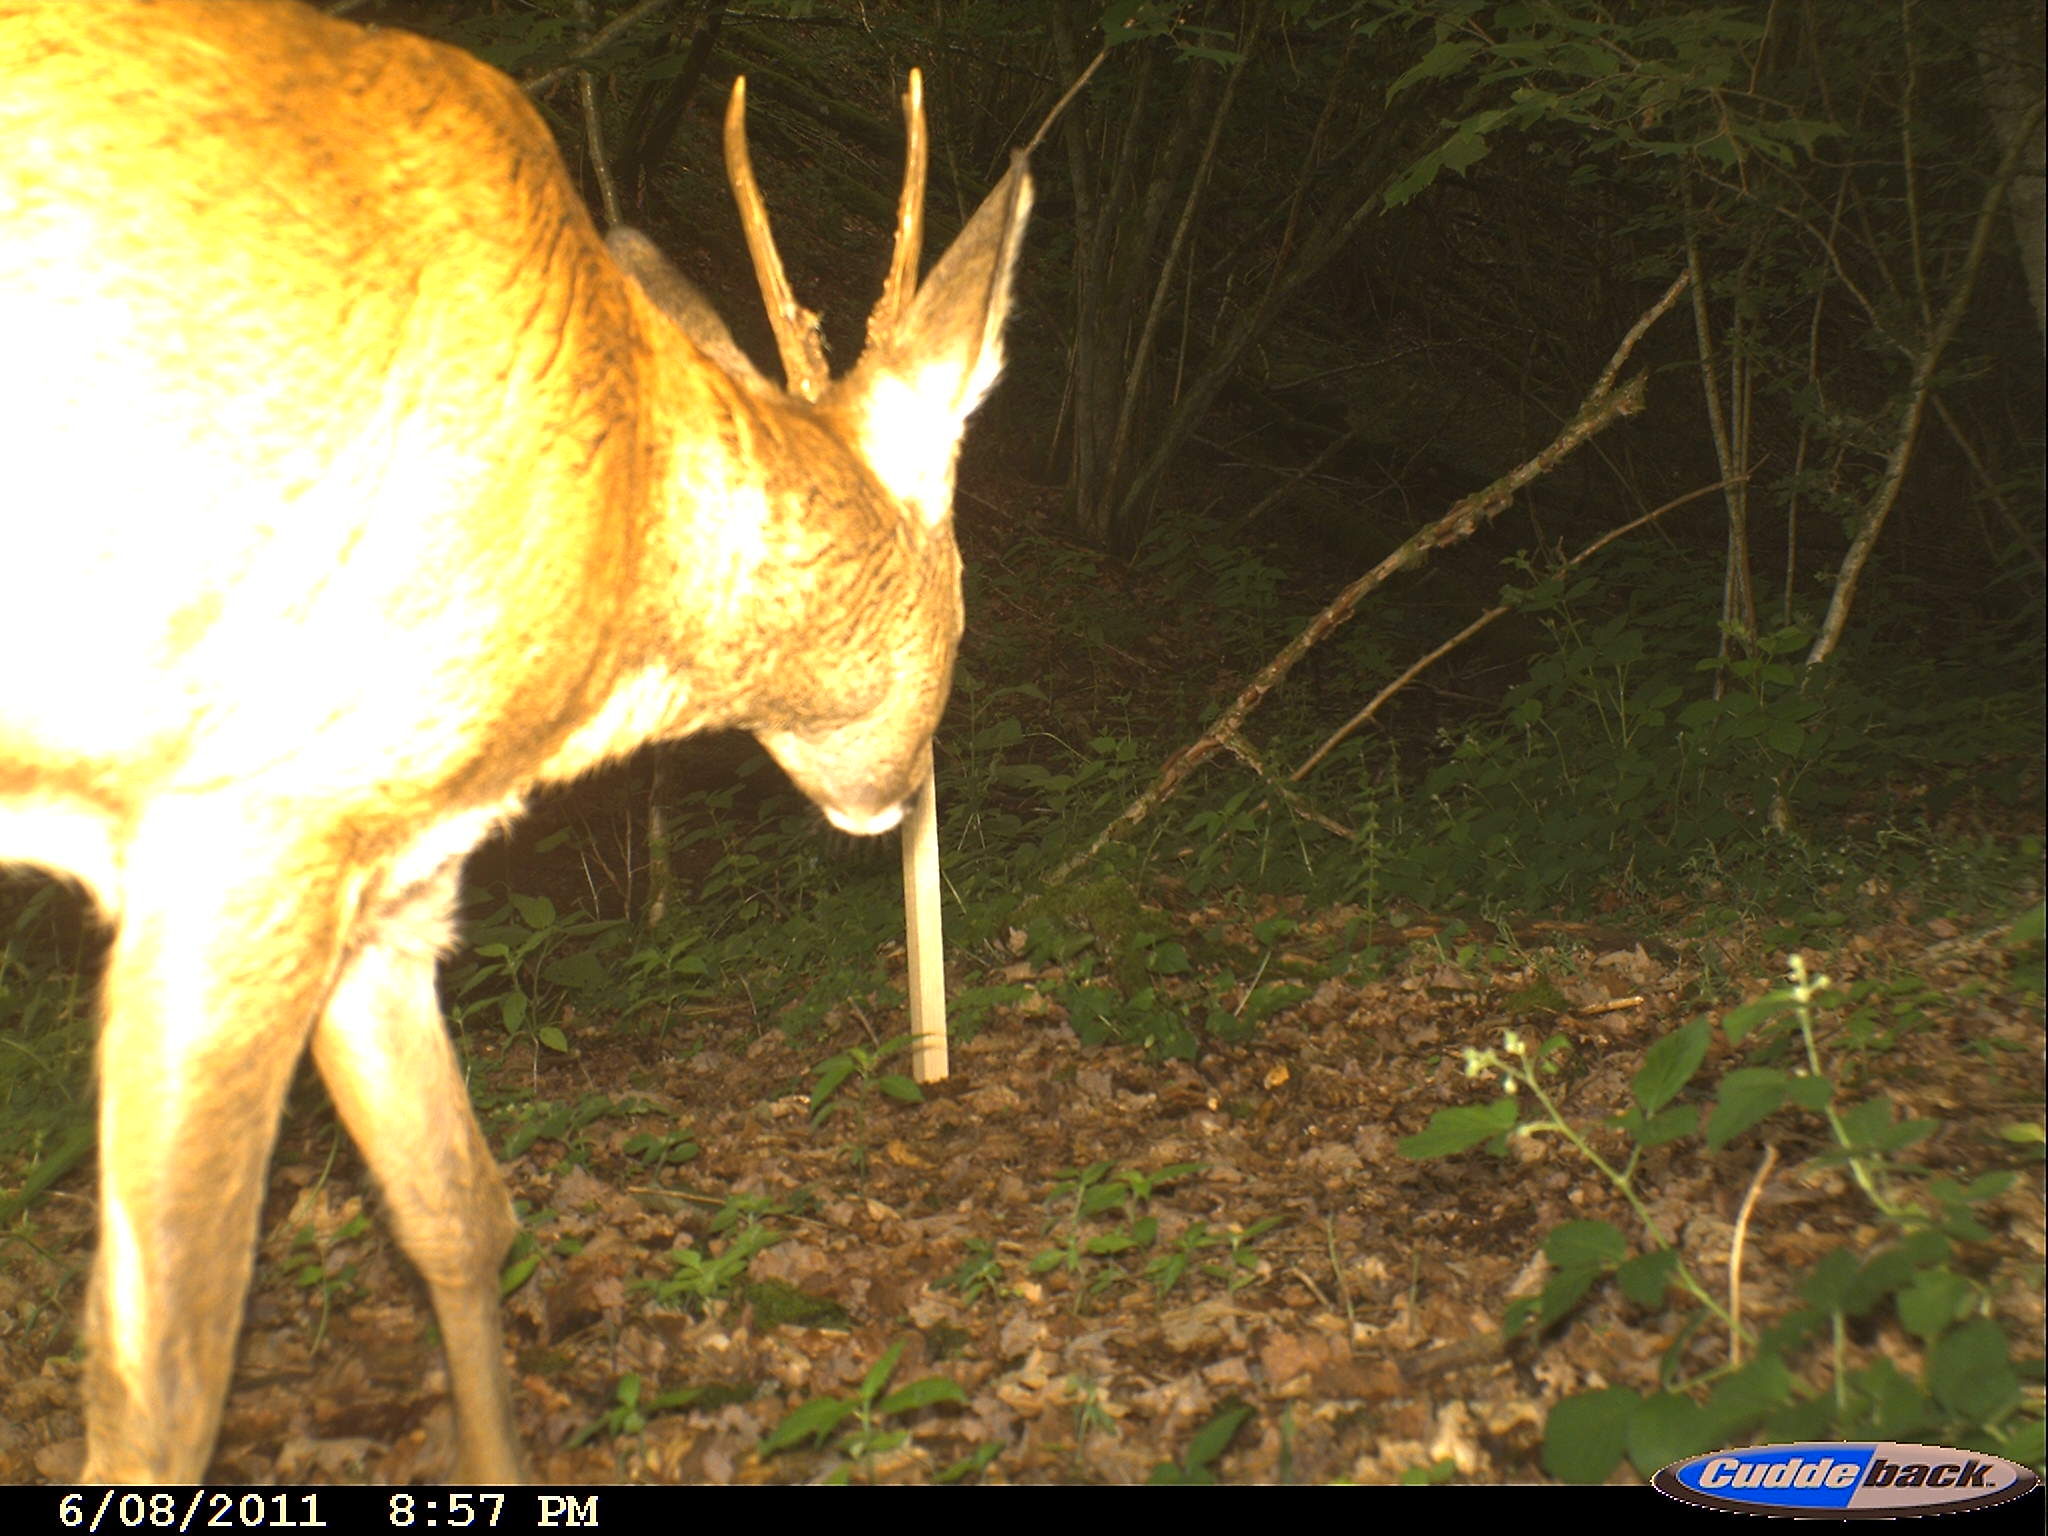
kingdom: Animalia
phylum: Chordata
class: Mammalia
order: Artiodactyla
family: Cervidae
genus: Capreolus
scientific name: Capreolus capreolus
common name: Western roe deer
